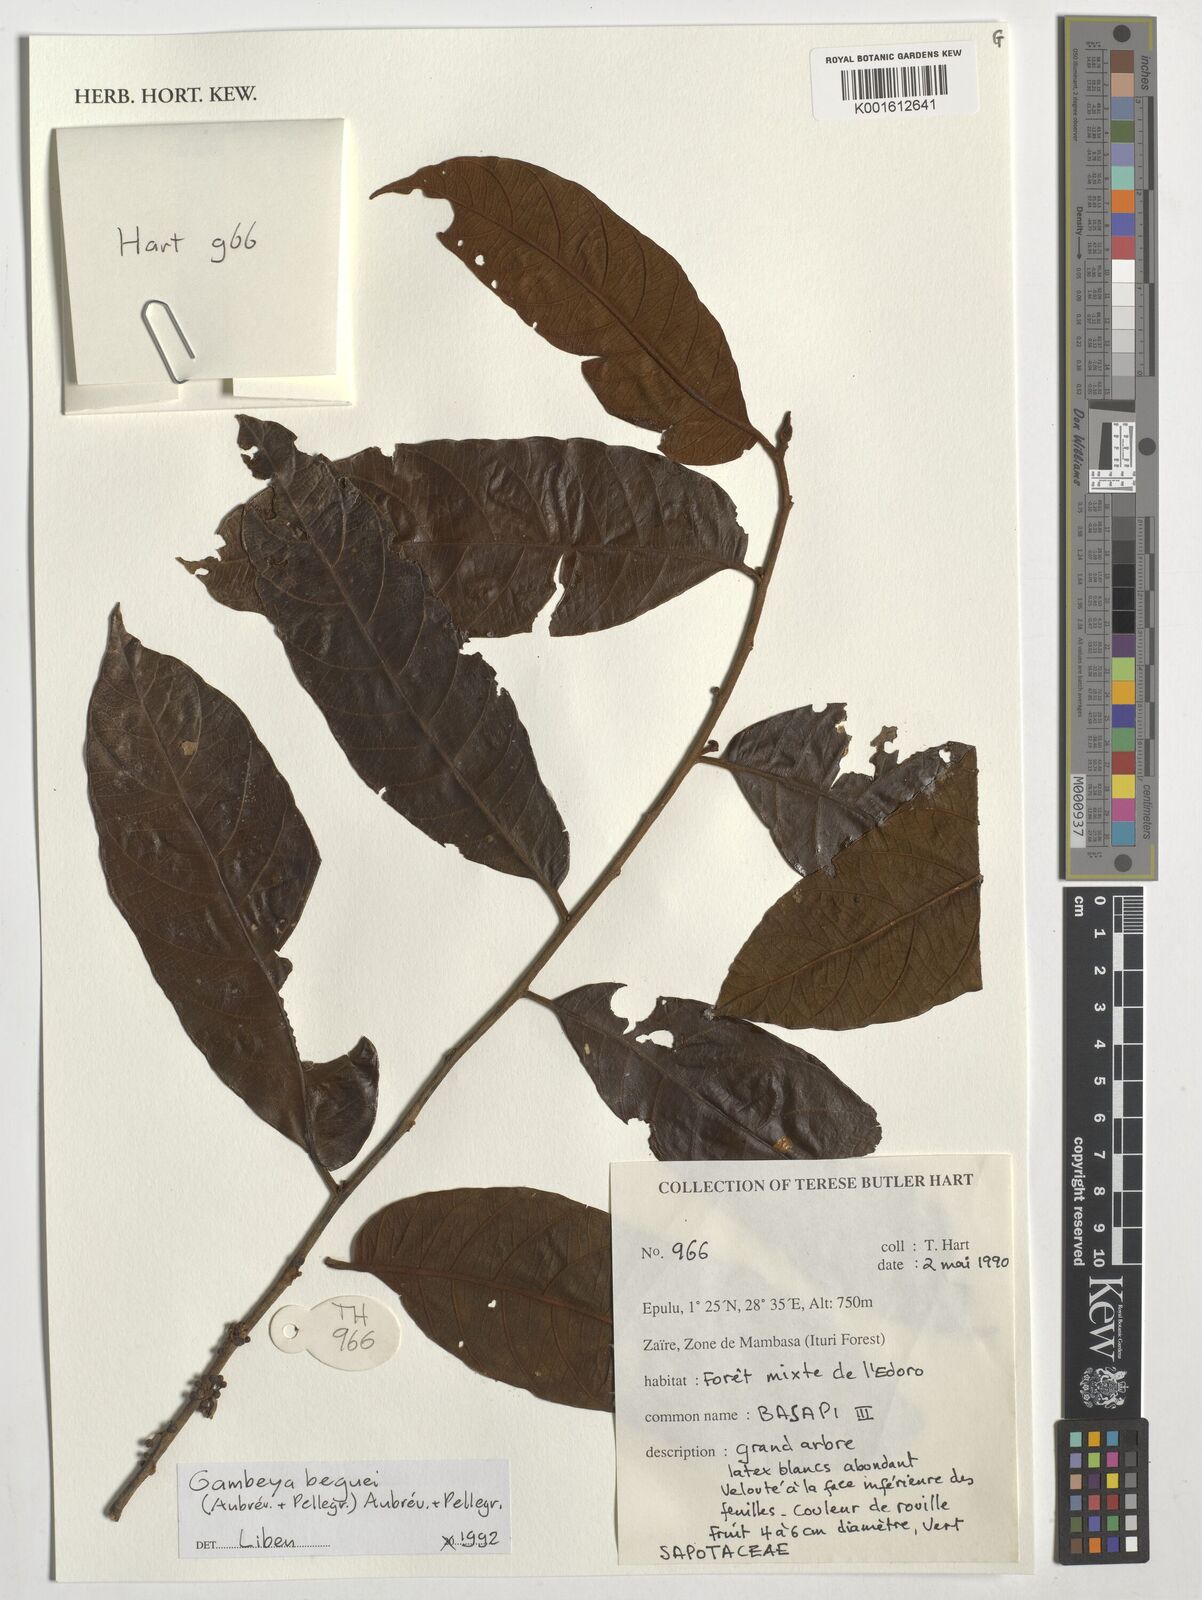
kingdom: Plantae
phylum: Tracheophyta
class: Magnoliopsida
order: Ericales
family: Sapotaceae
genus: Gambeya
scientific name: Gambeya beguei
